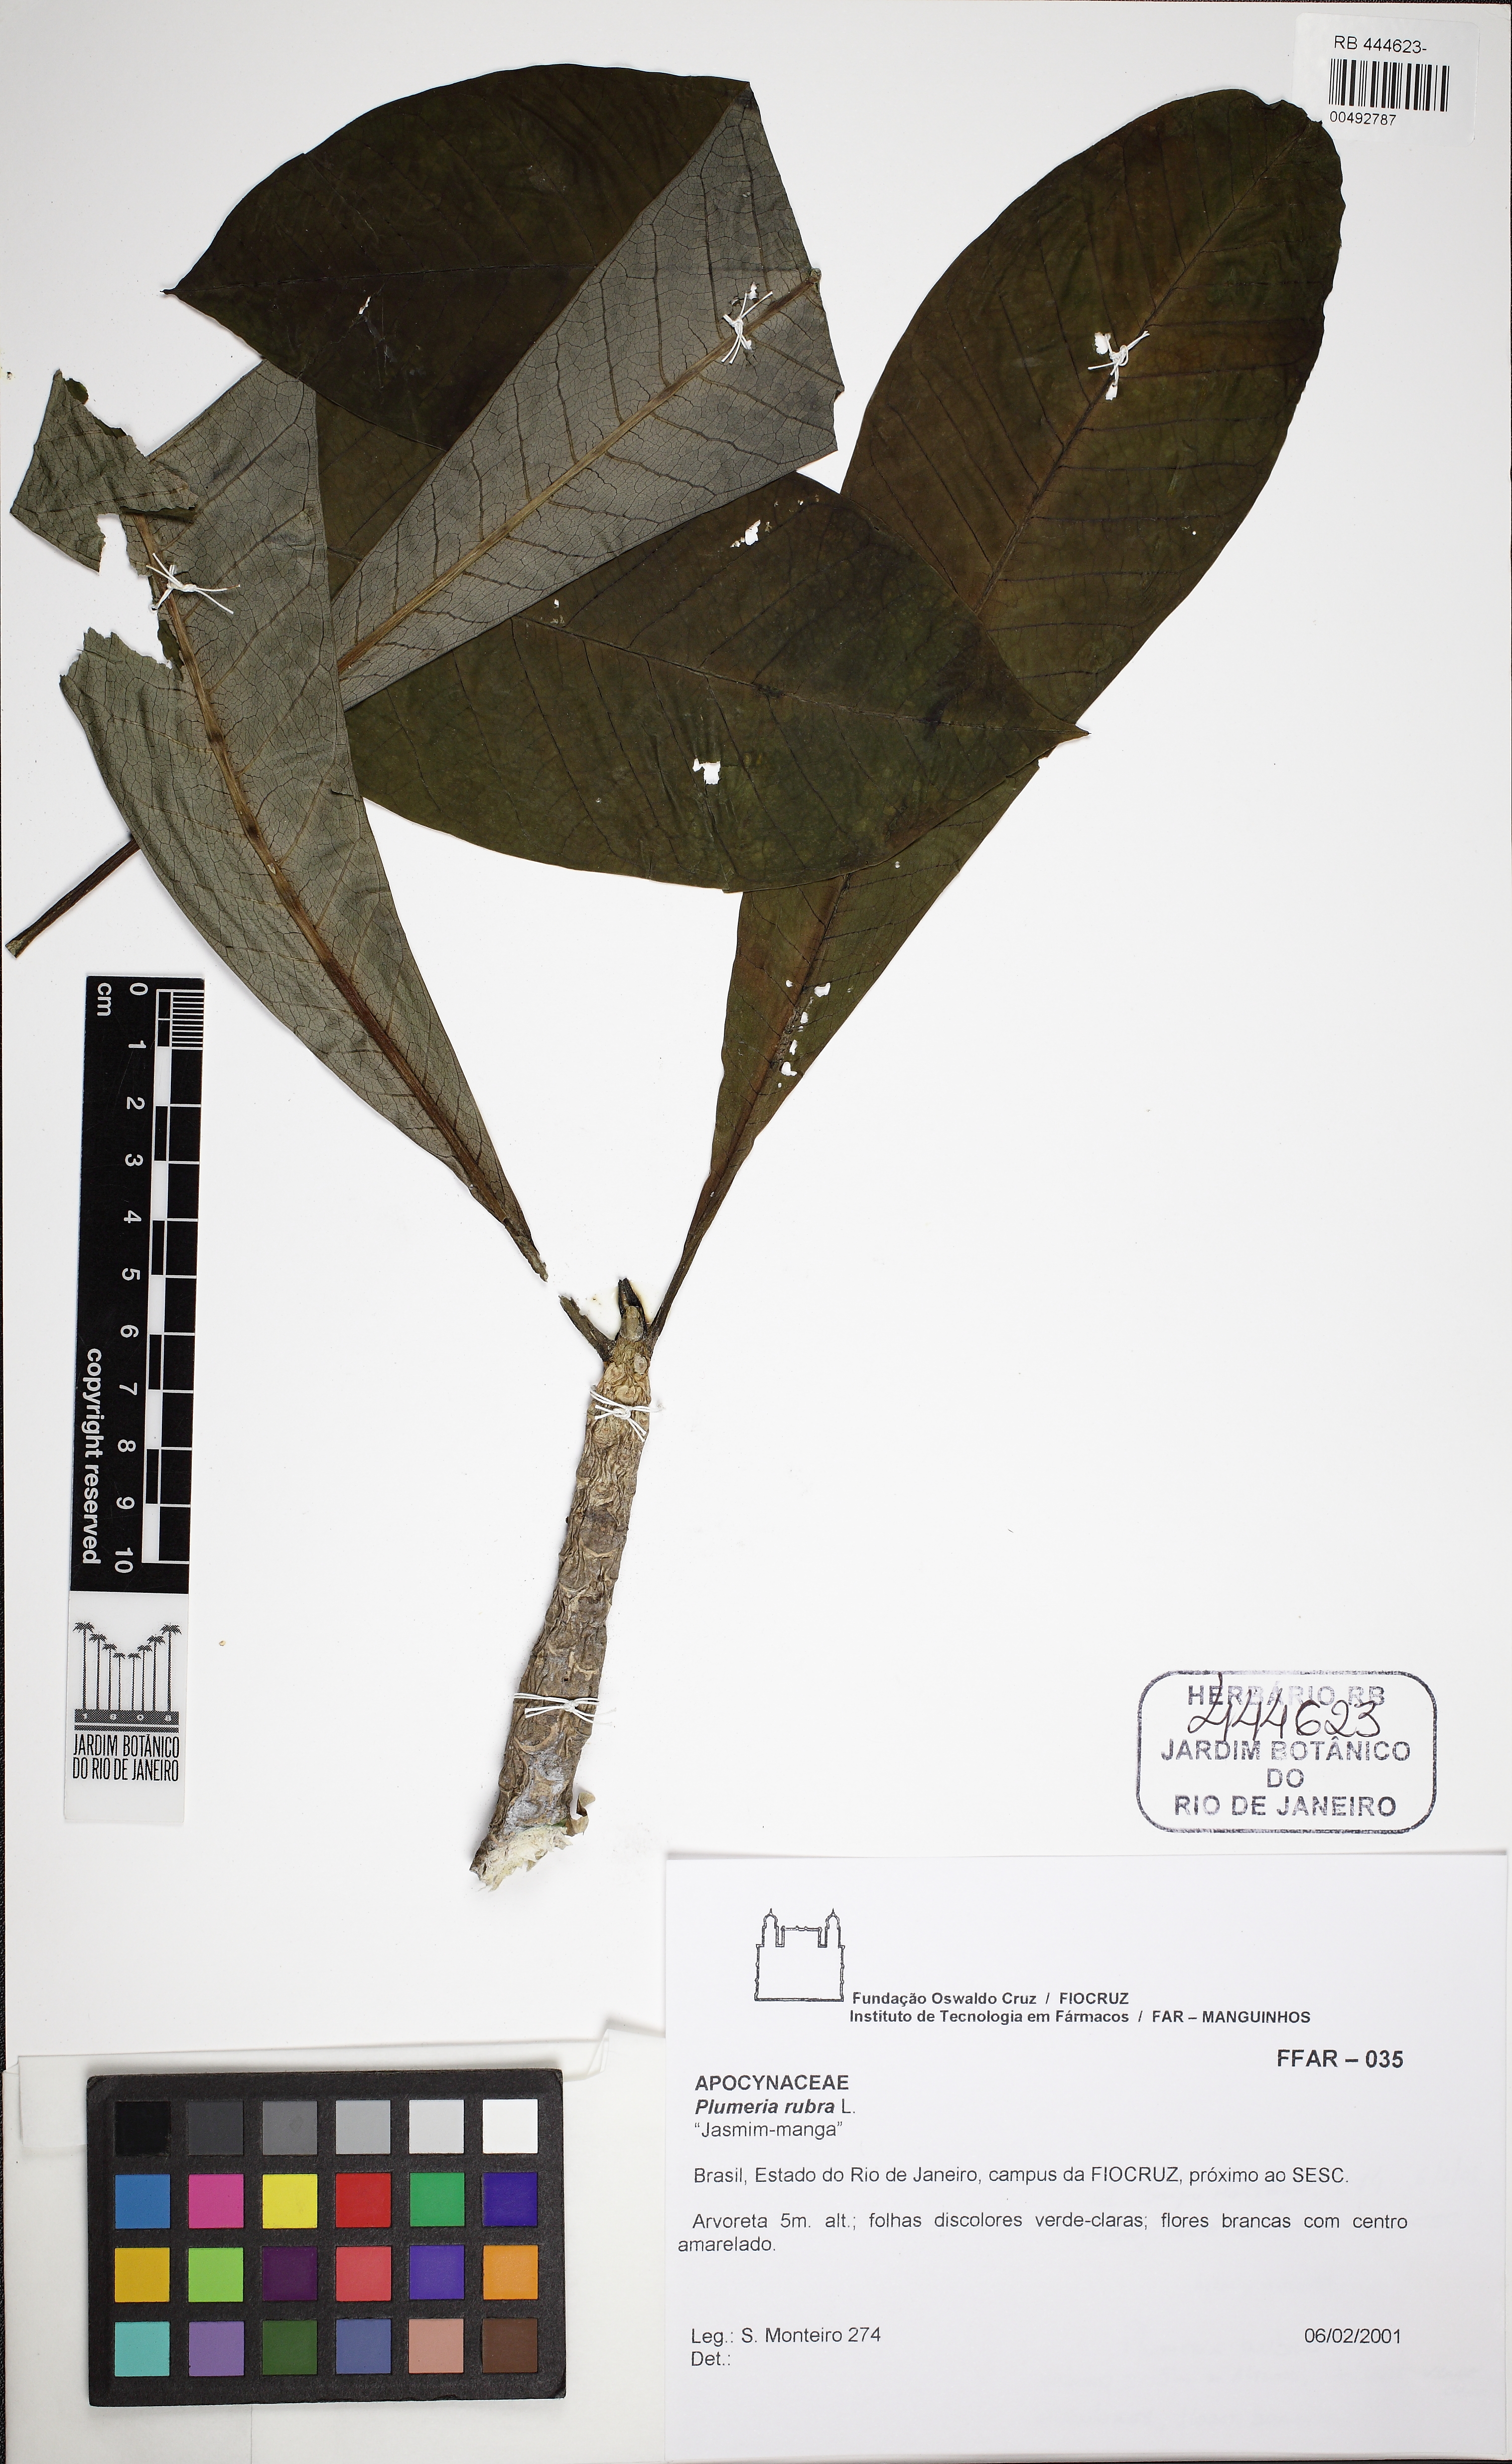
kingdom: Plantae
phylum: Tracheophyta
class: Magnoliopsida
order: Gentianales
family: Apocynaceae
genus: Plumeria
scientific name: Plumeria rubra
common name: Pagoda-tree
